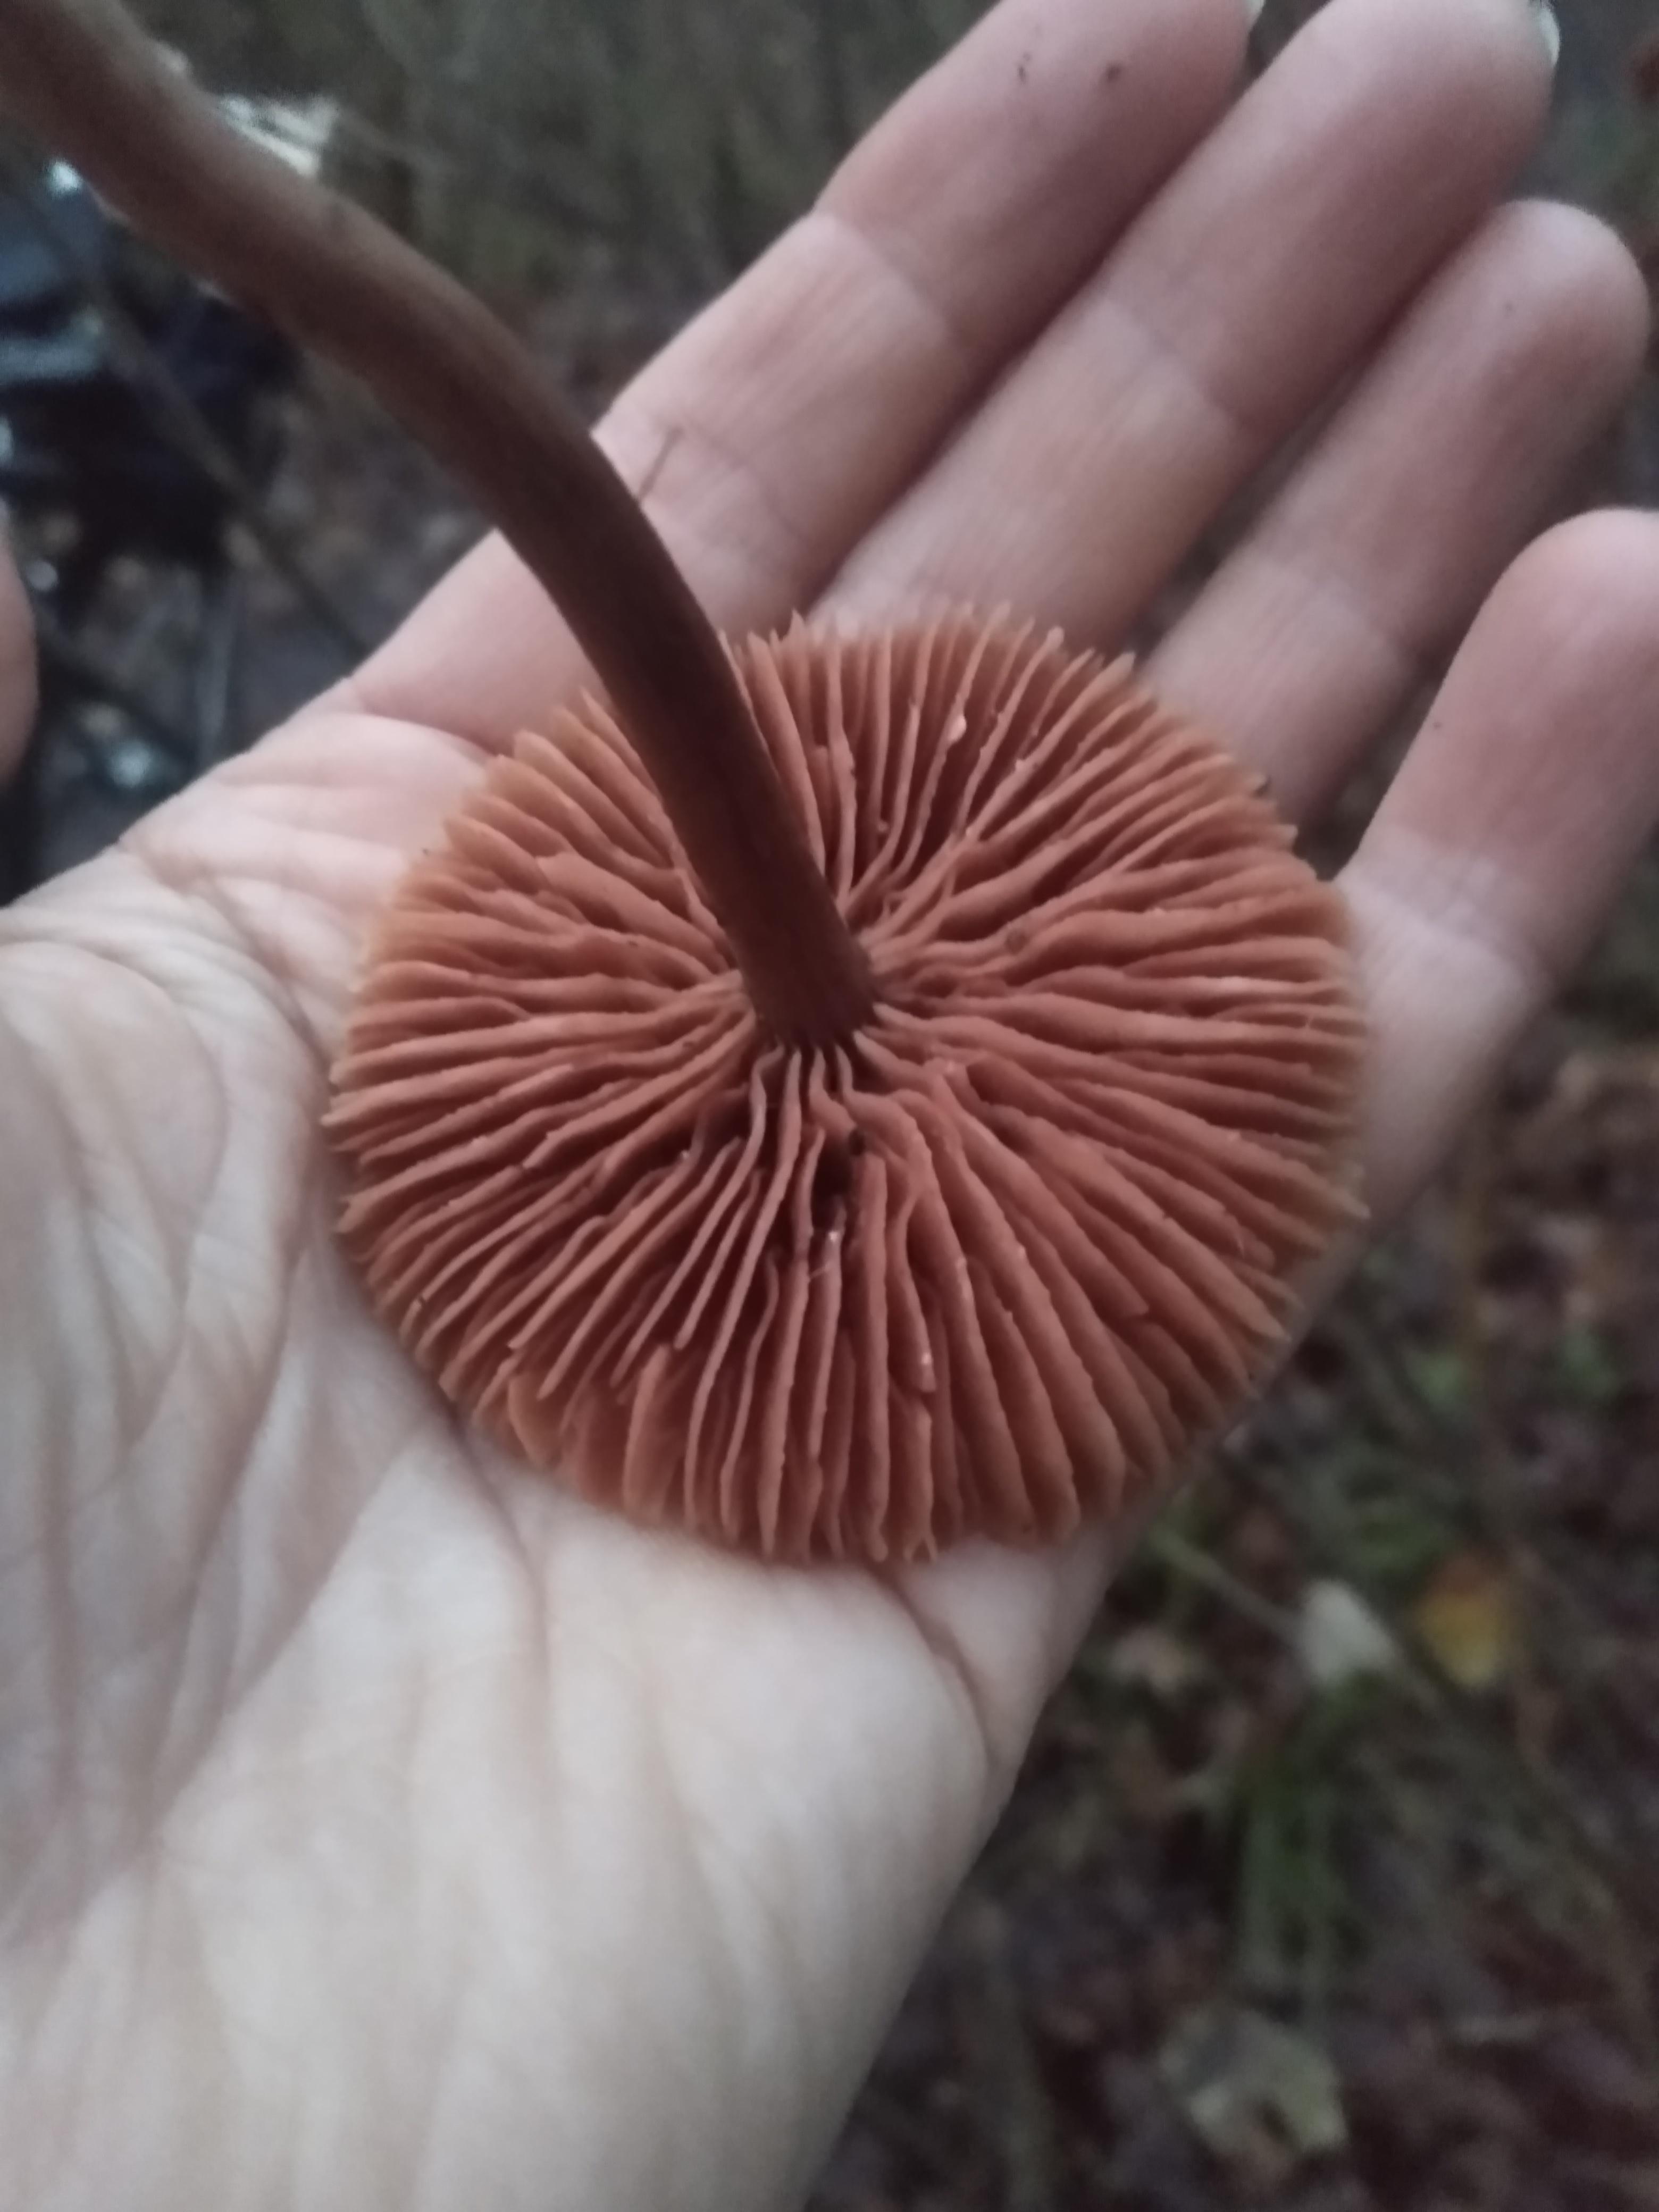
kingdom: Fungi
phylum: Basidiomycota
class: Agaricomycetes
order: Agaricales
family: Hydnangiaceae
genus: Laccaria
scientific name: Laccaria
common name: ametysthat
